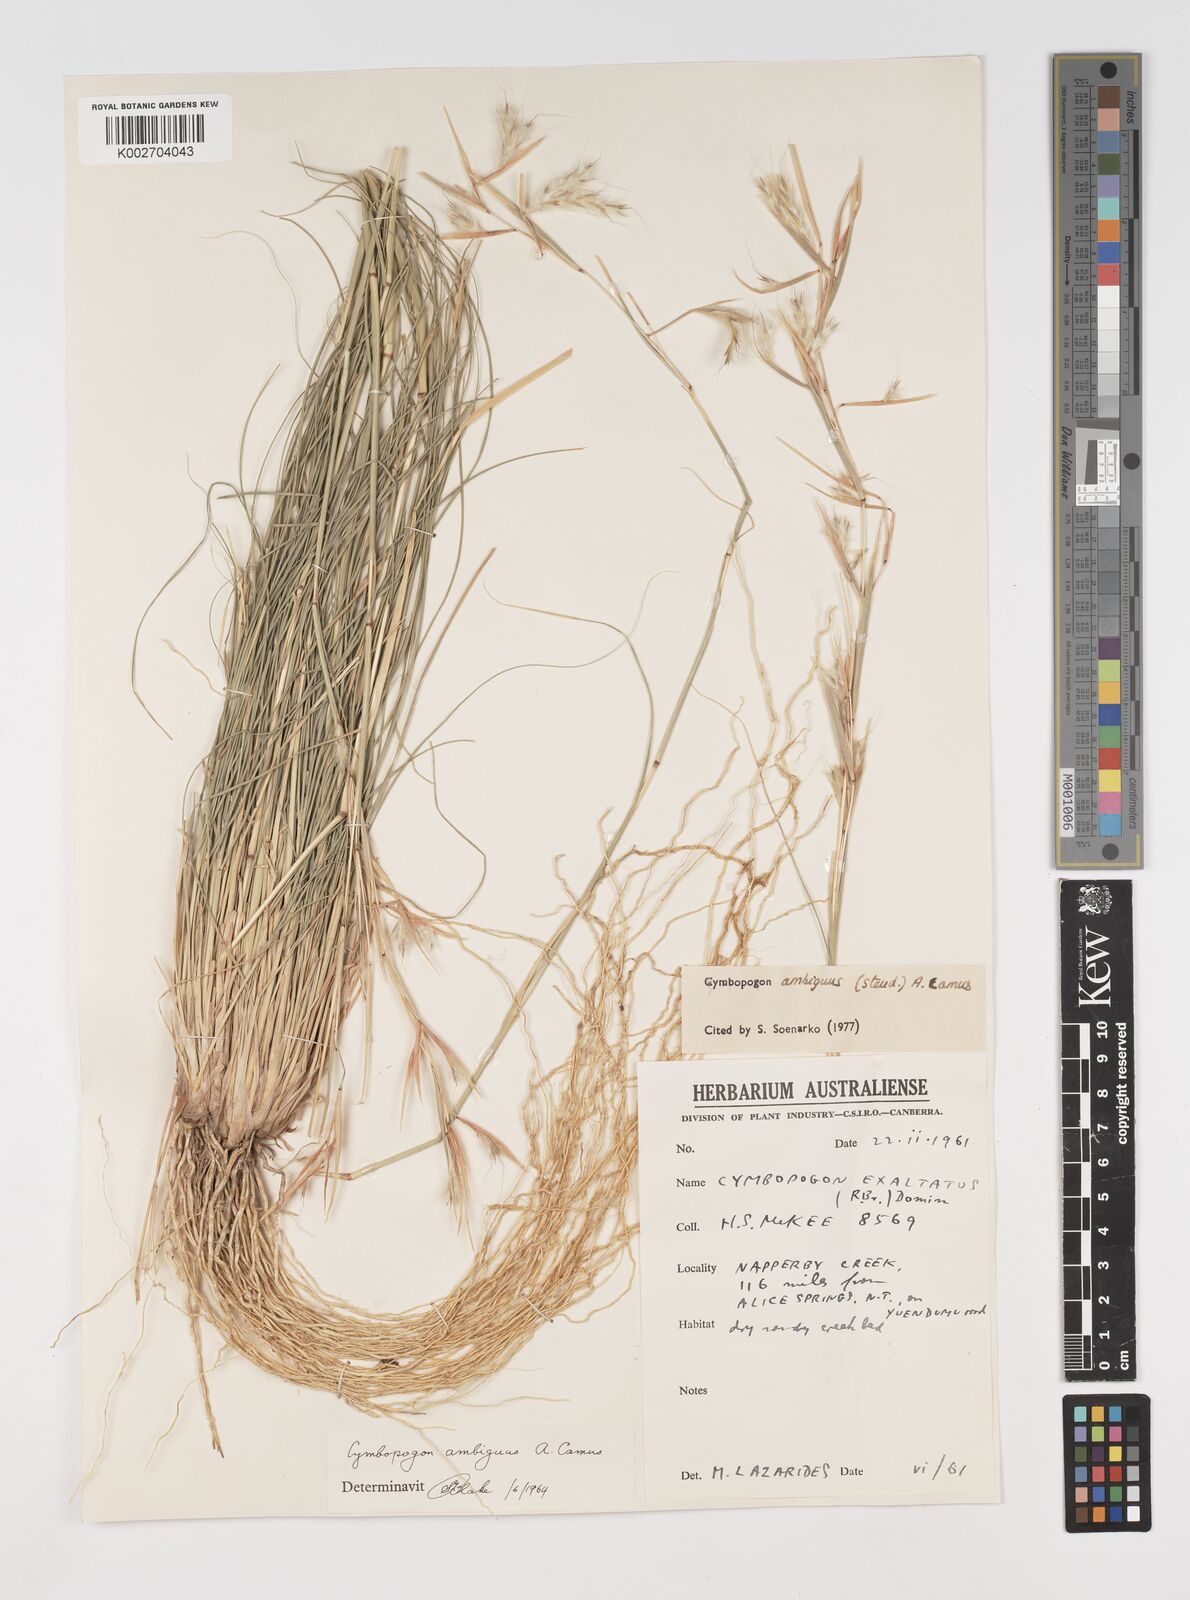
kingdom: Plantae
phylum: Tracheophyta
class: Liliopsida
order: Poales
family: Poaceae
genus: Cymbopogon
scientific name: Cymbopogon ambiguus
